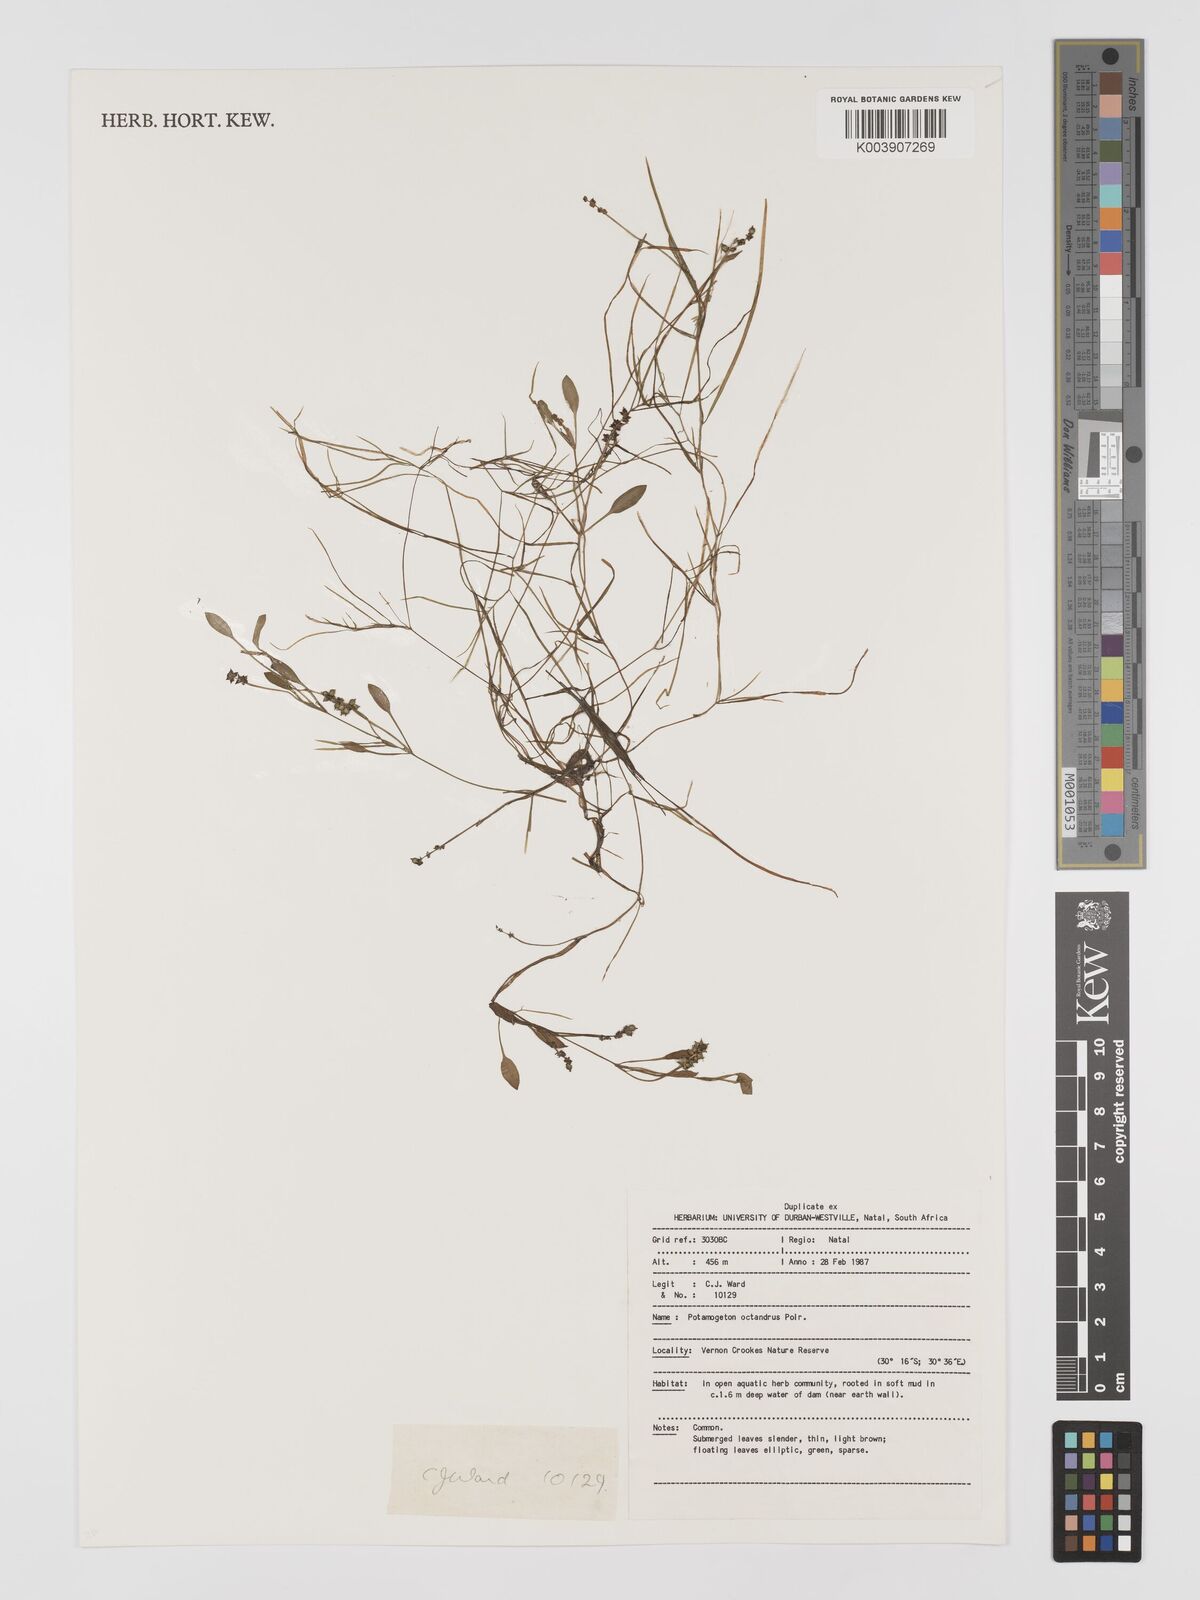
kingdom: Plantae
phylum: Tracheophyta
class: Liliopsida
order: Alismatales
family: Potamogetonaceae
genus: Potamogeton
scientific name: Potamogeton octandrus
